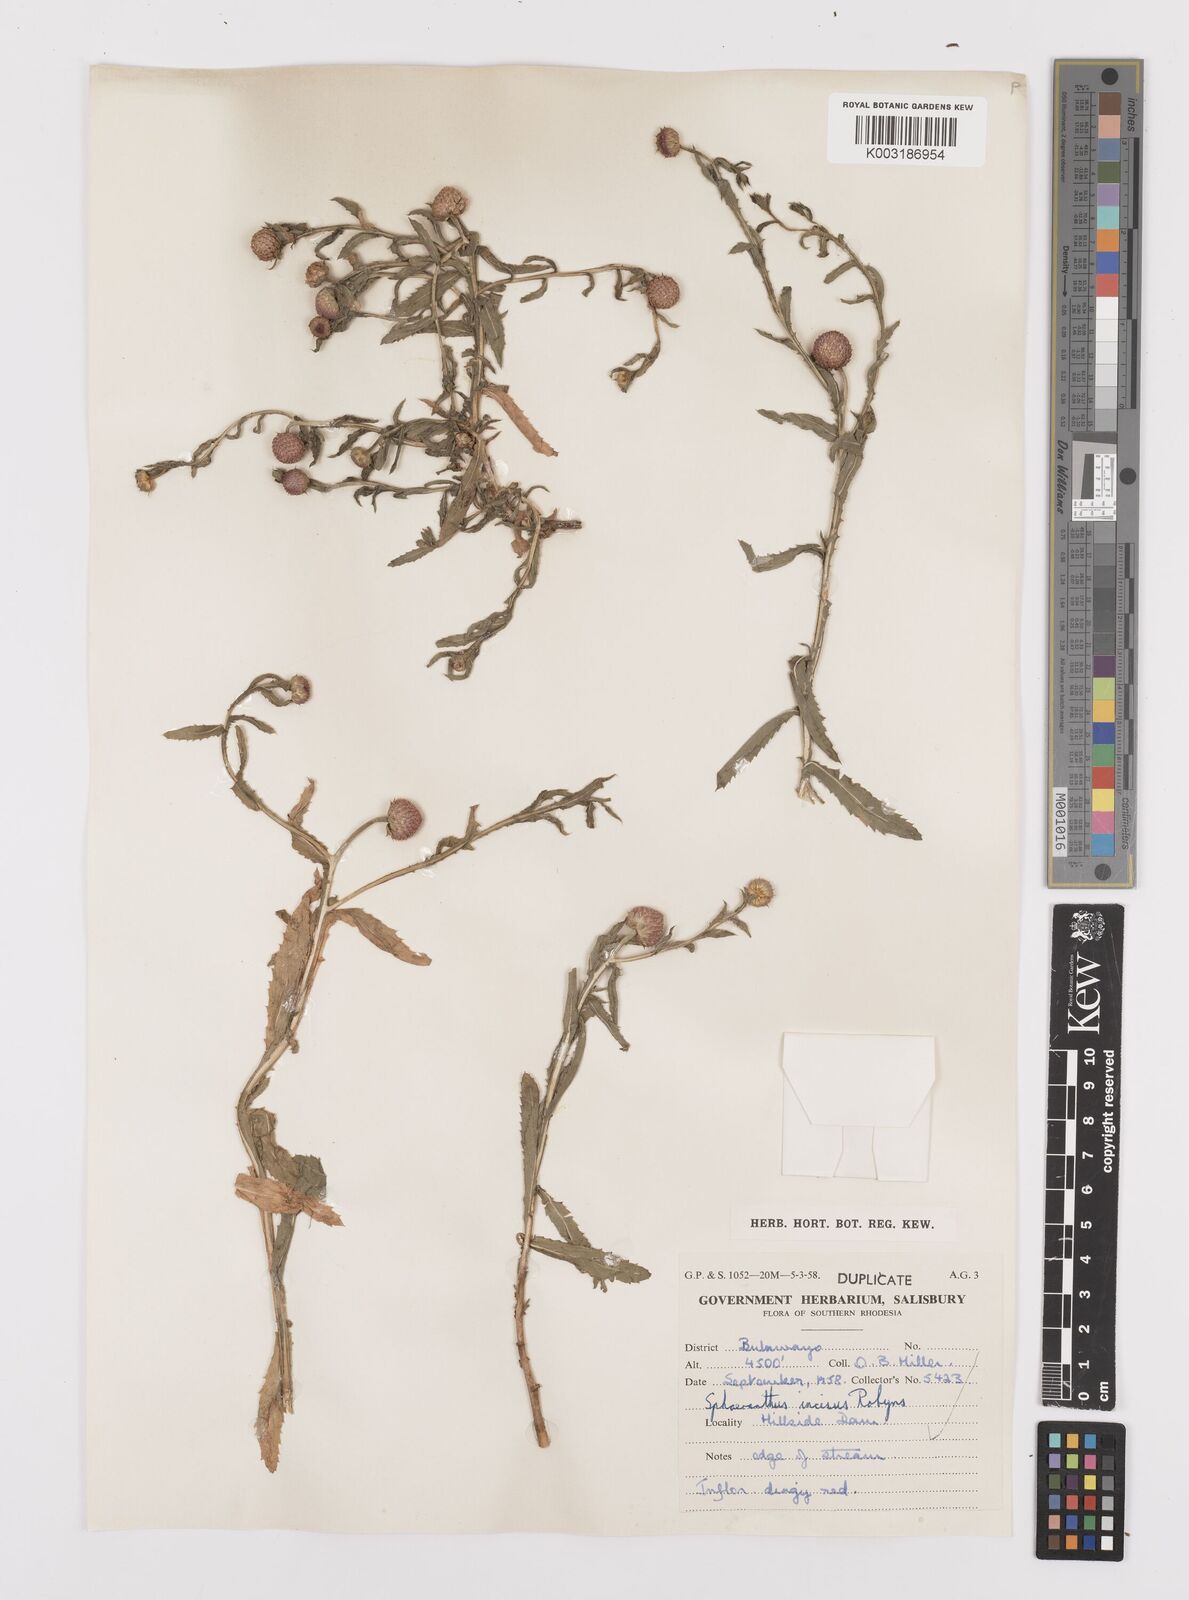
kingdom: Plantae
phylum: Tracheophyta
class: Magnoliopsida
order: Asterales
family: Asteraceae
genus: Sphaeranthus
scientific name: Sphaeranthus peduncularis
